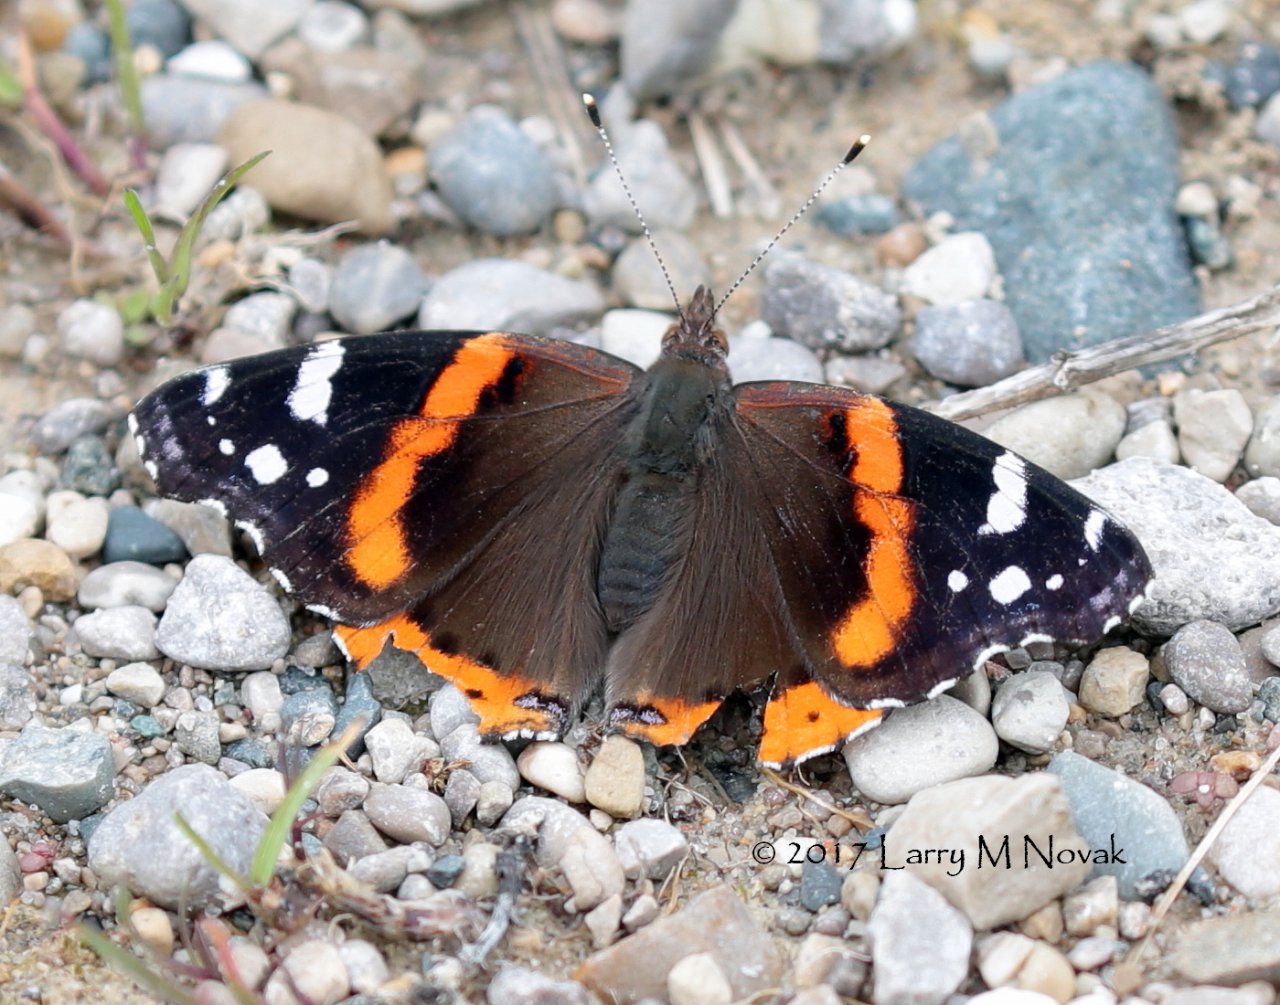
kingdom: Animalia
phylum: Arthropoda
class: Insecta
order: Lepidoptera
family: Nymphalidae
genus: Vanessa
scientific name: Vanessa atalanta
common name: Red Admiral
